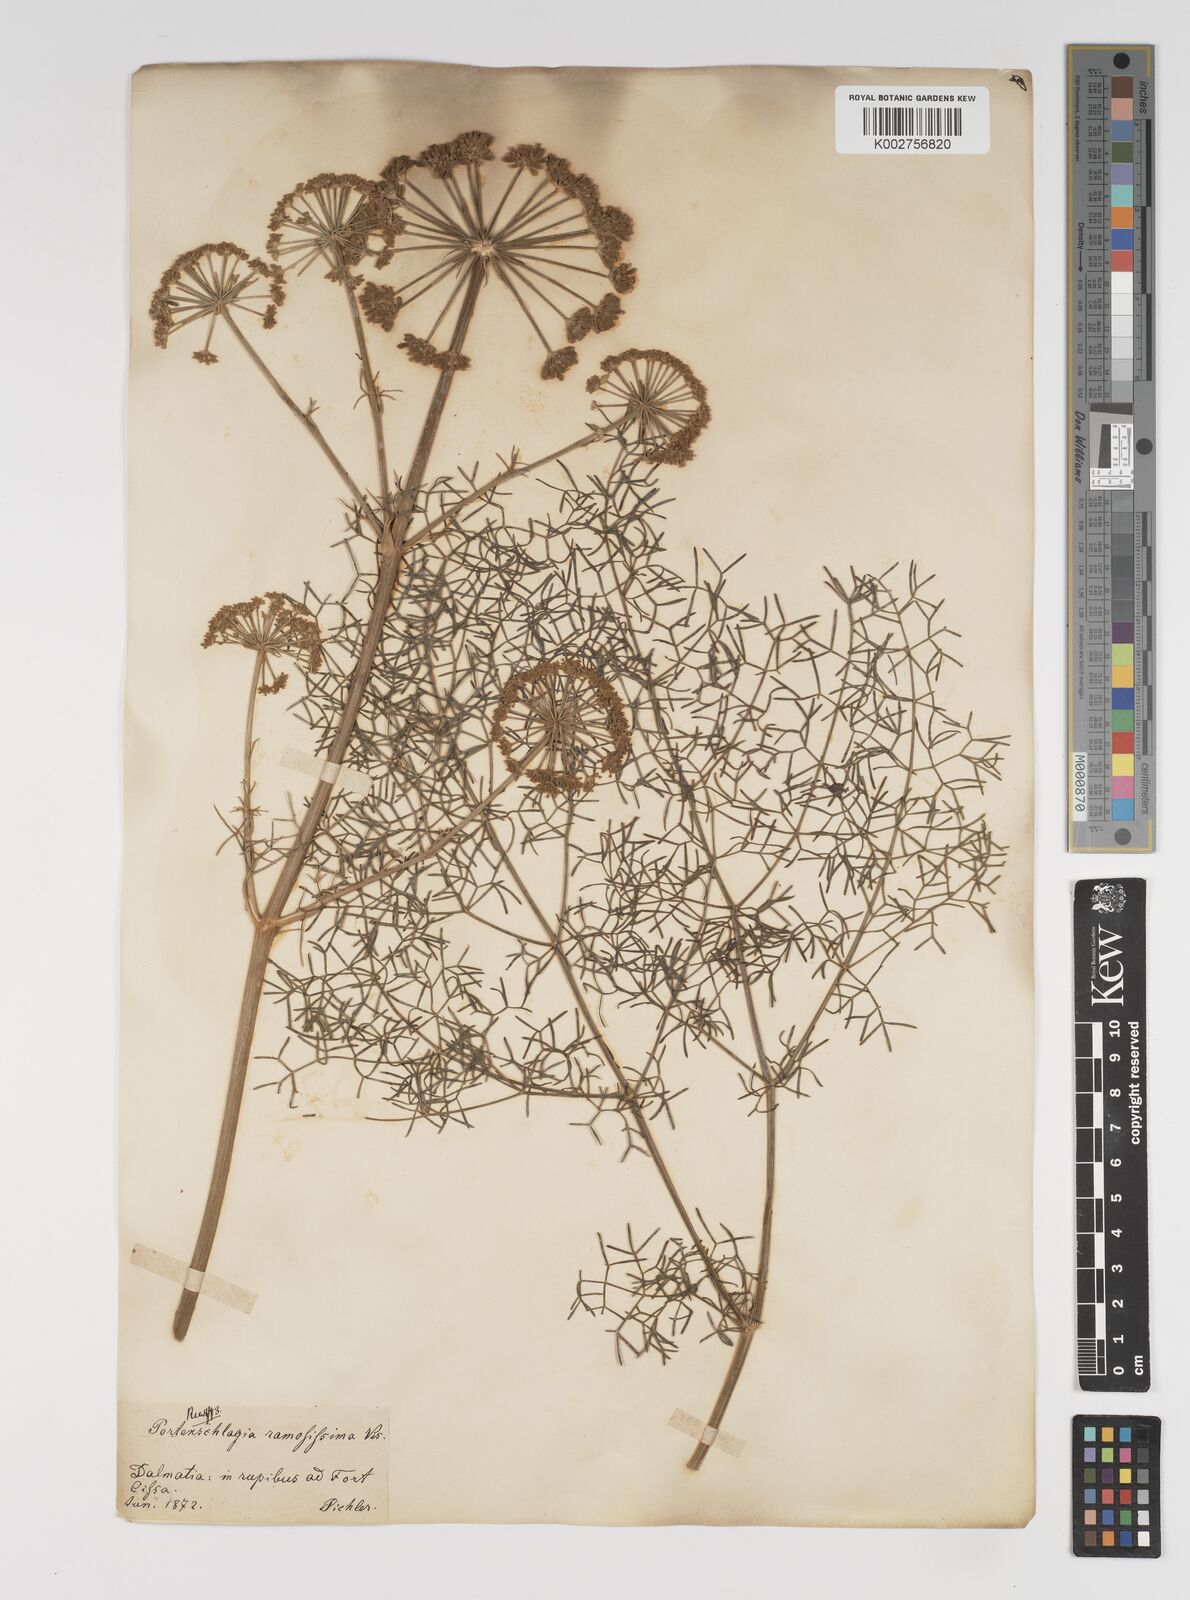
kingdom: Plantae
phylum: Tracheophyta
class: Magnoliopsida
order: Apiales
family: Apiaceae
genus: Athamanta
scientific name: Athamanta ramosissima
